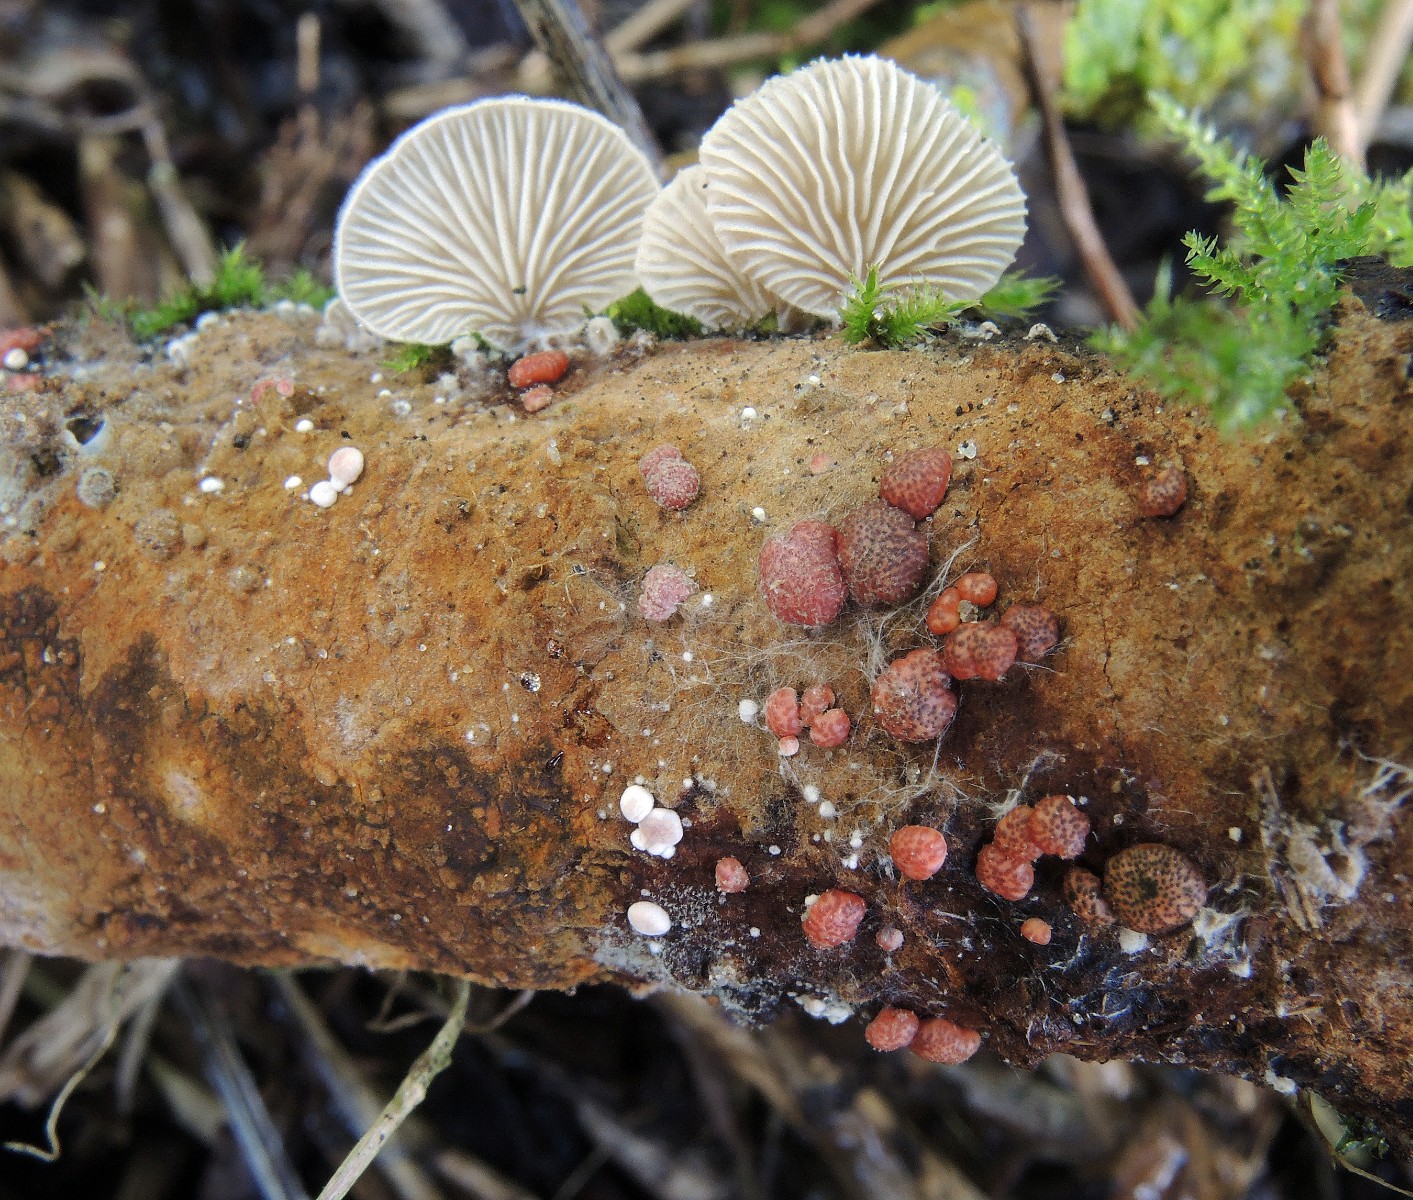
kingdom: Fungi
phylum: Basidiomycota
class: Agaricomycetes
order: Agaricales
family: Entolomataceae
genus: Clitopilus
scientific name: Clitopilus hobsonii
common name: Miller's oysterling
